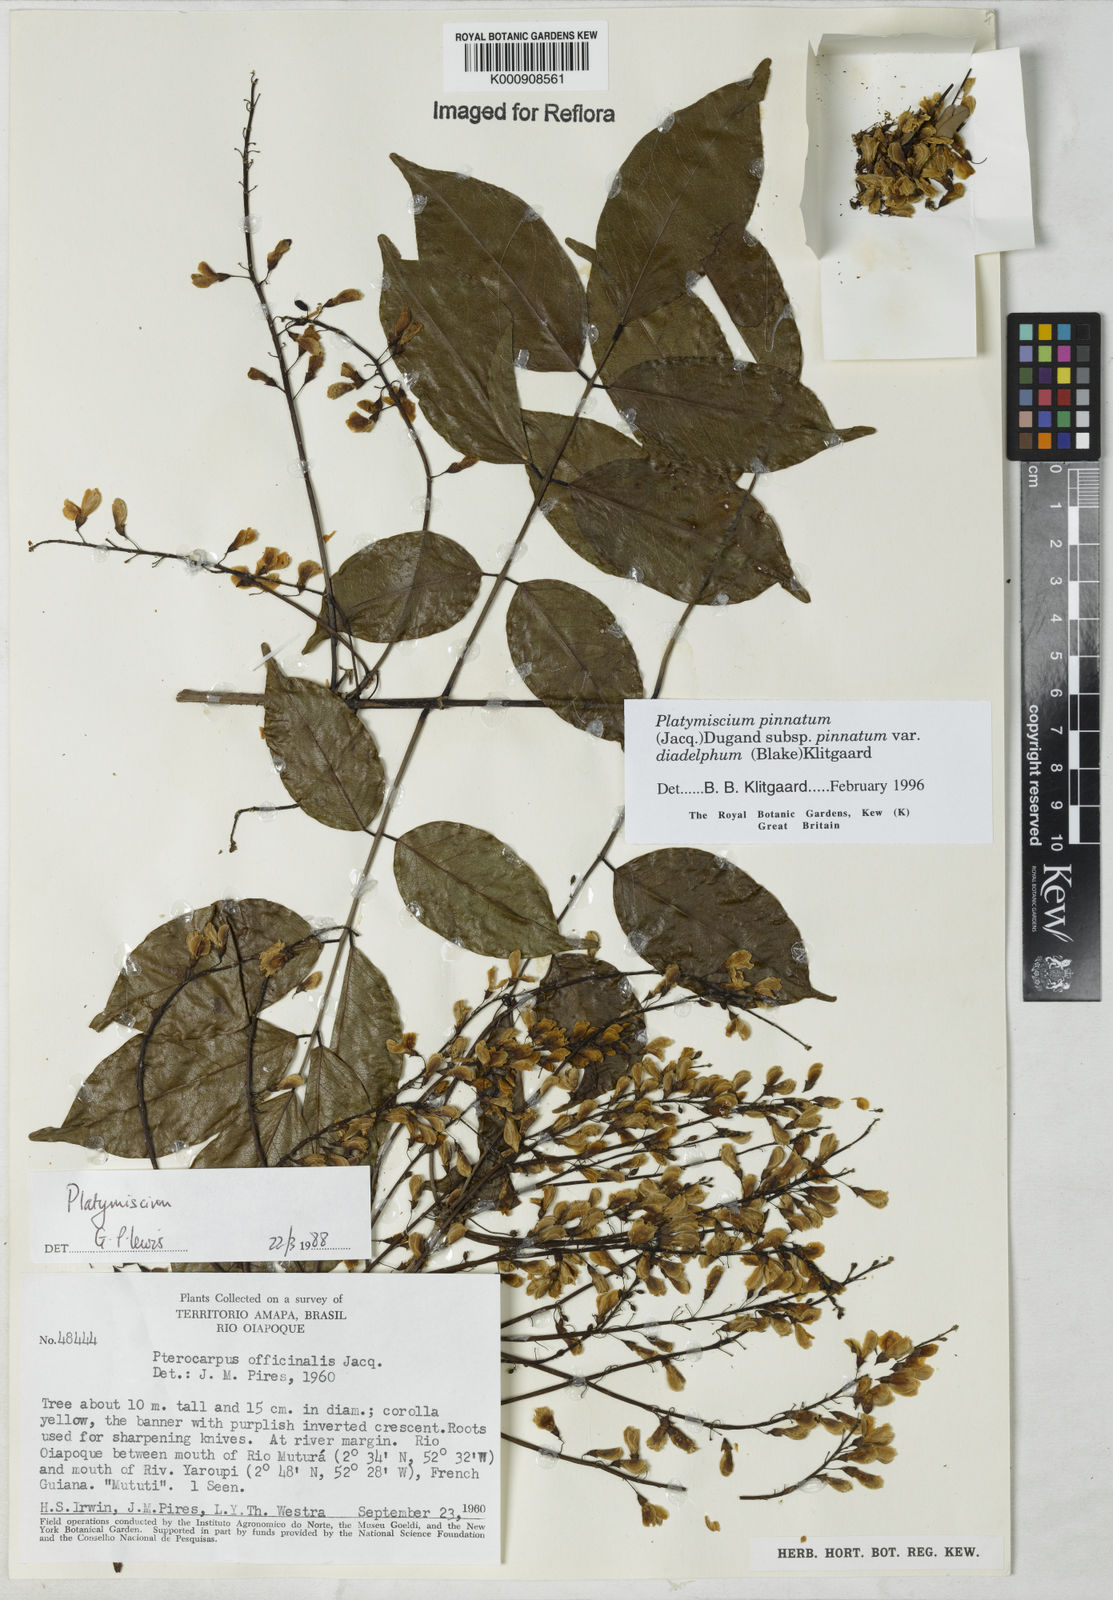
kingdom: Plantae
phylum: Tracheophyta
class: Magnoliopsida
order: Fabales
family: Fabaceae
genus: Platymiscium
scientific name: Platymiscium pinnatum
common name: Panama redwood
